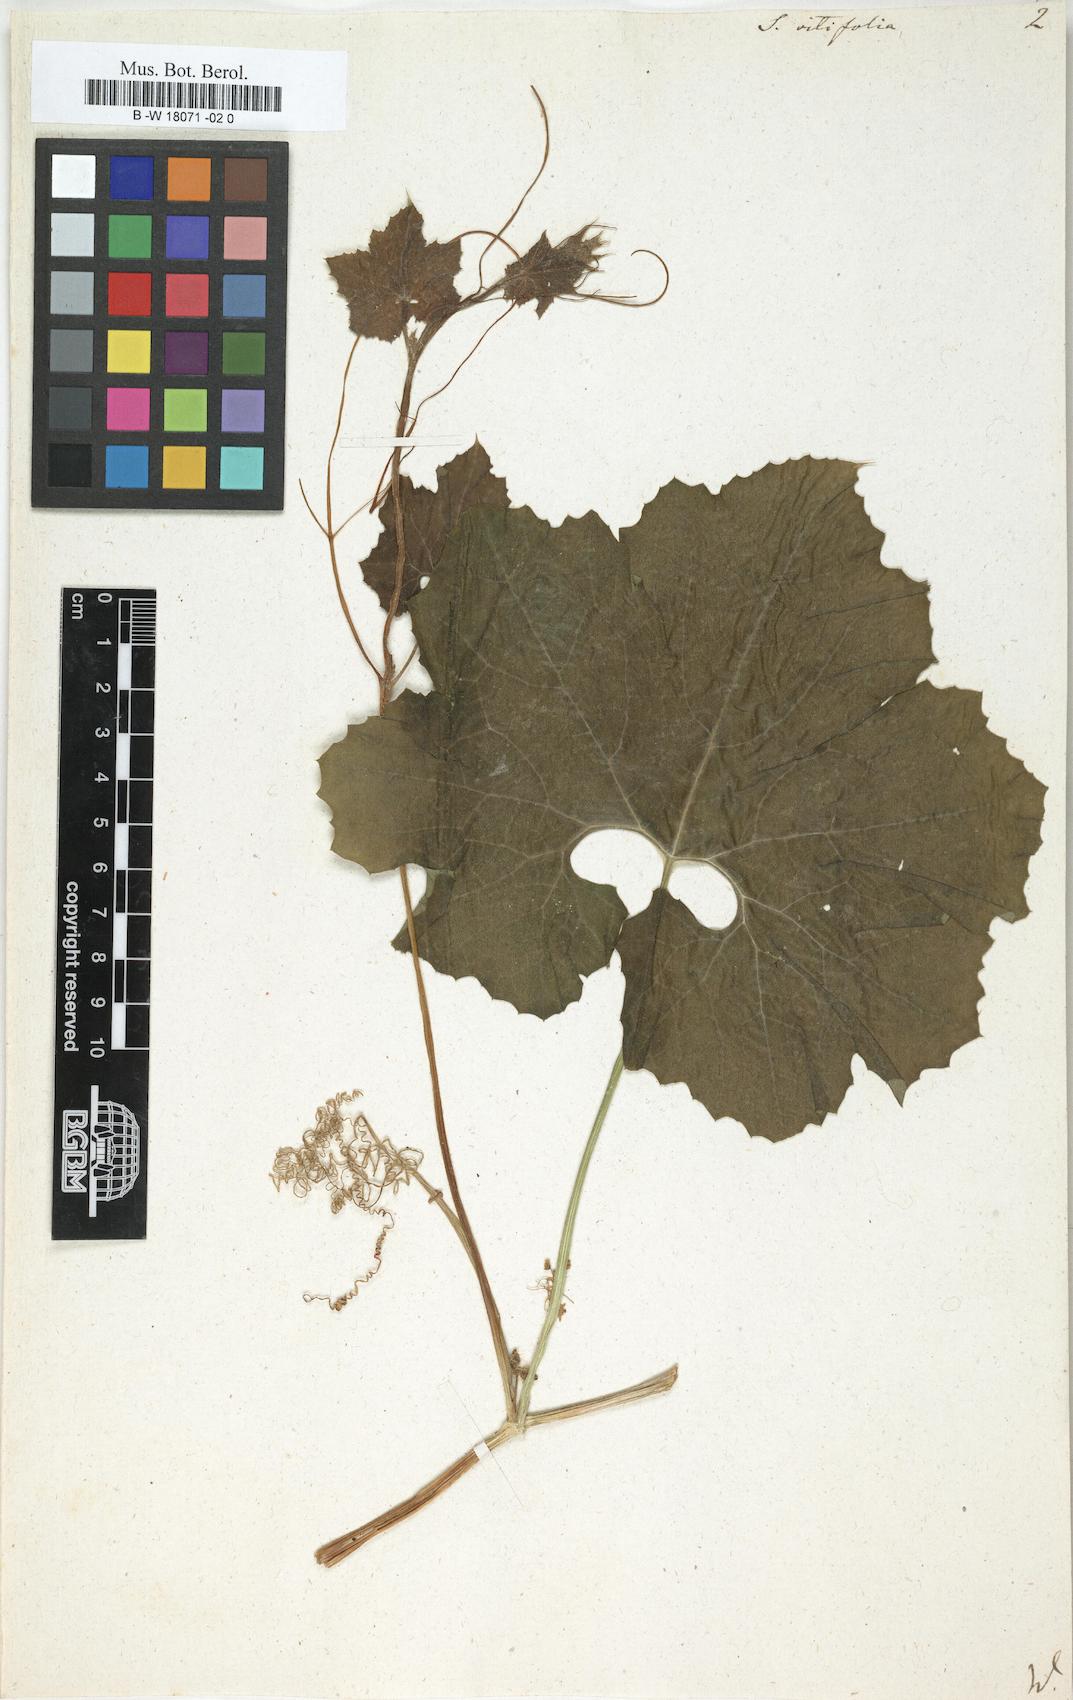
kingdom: Plantae
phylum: Tracheophyta
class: Magnoliopsida
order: Cucurbitales
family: Cucurbitaceae
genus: Sicyos
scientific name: Sicyos
